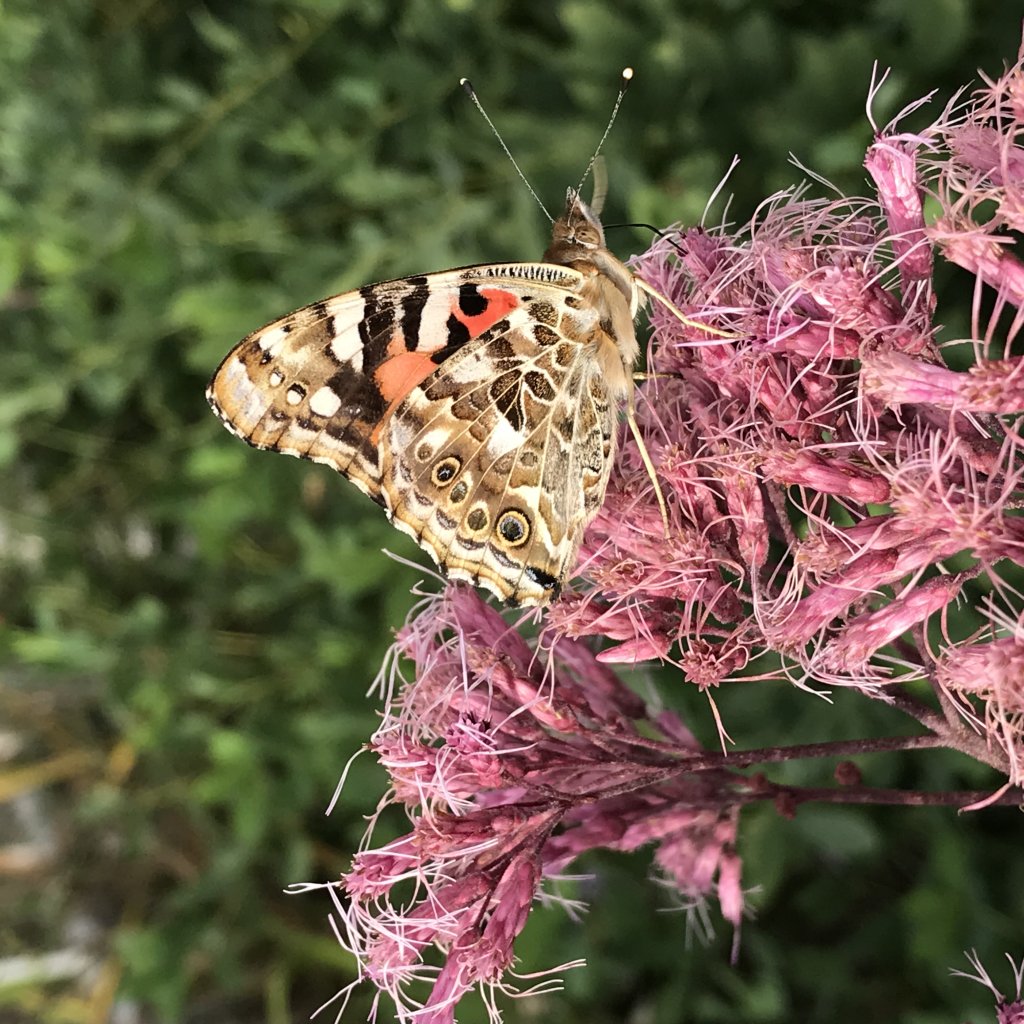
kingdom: Animalia
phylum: Arthropoda
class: Insecta
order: Lepidoptera
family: Nymphalidae
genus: Vanessa
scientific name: Vanessa cardui
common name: Painted Lady
